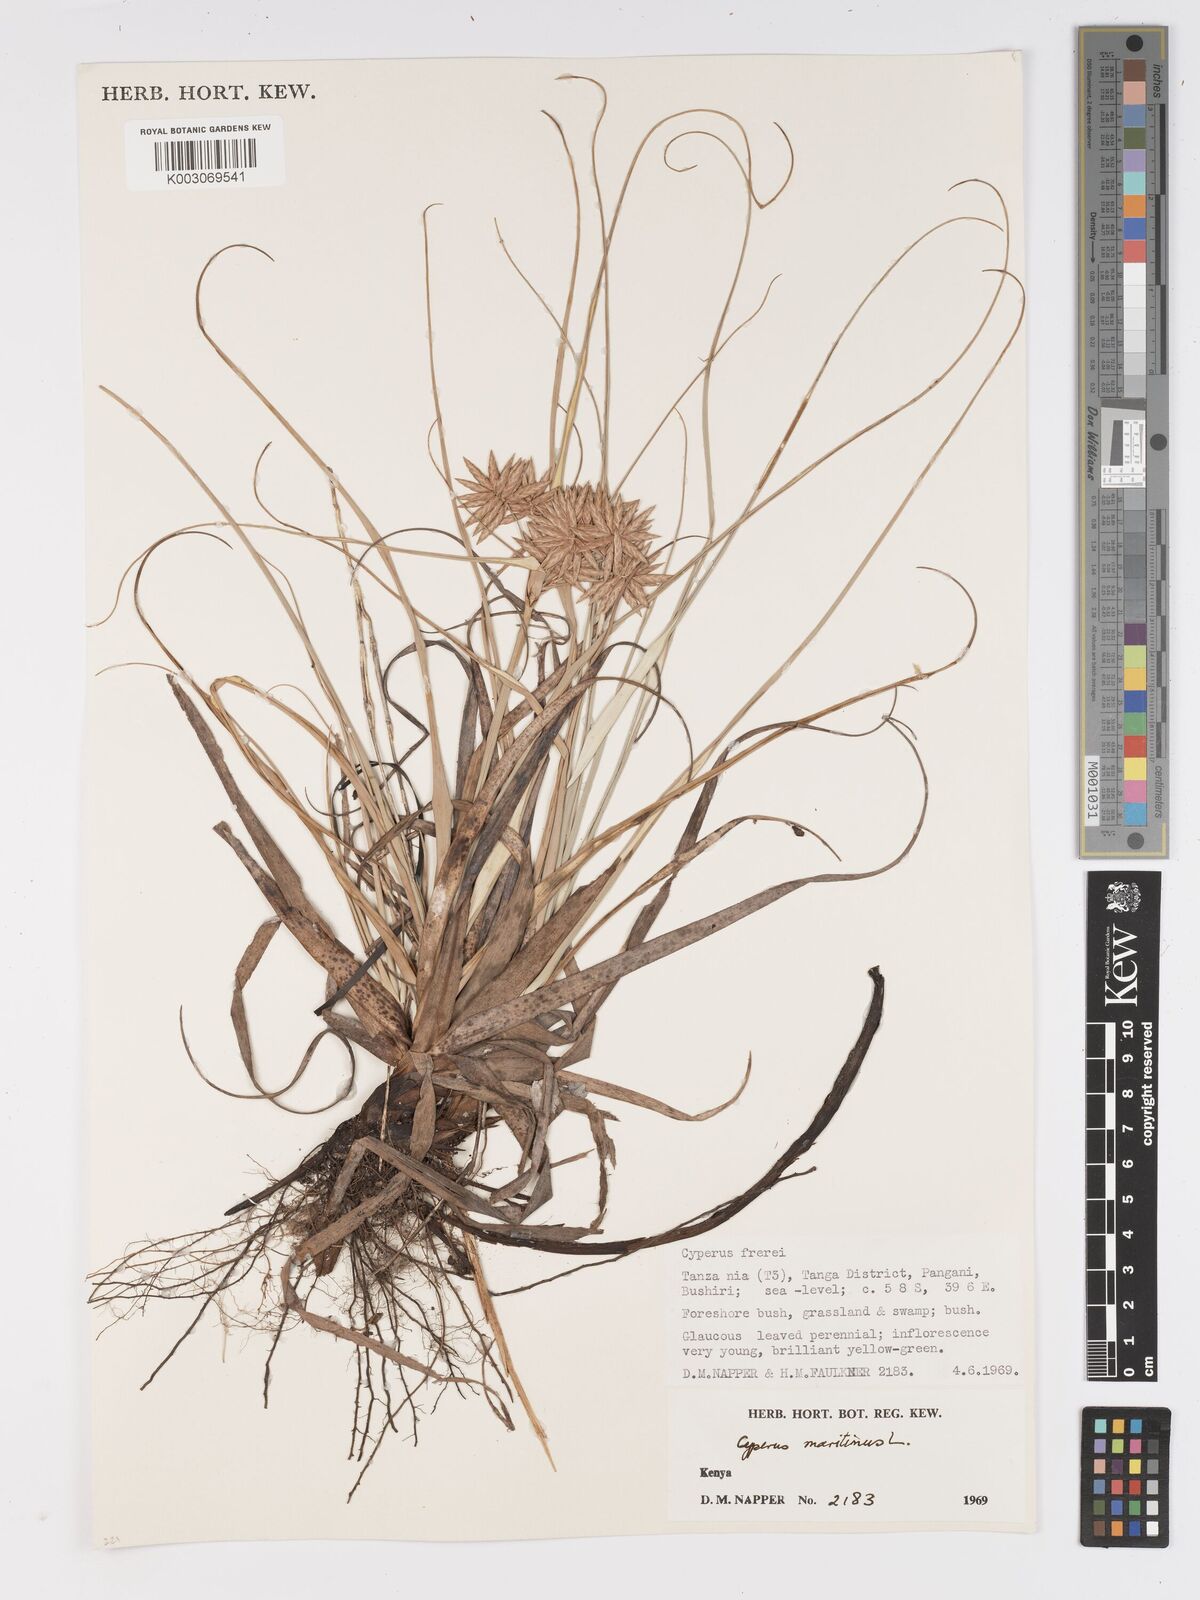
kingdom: Plantae
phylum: Tracheophyta
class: Liliopsida
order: Poales
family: Cyperaceae
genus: Cyperus
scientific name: Cyperus crassipes
